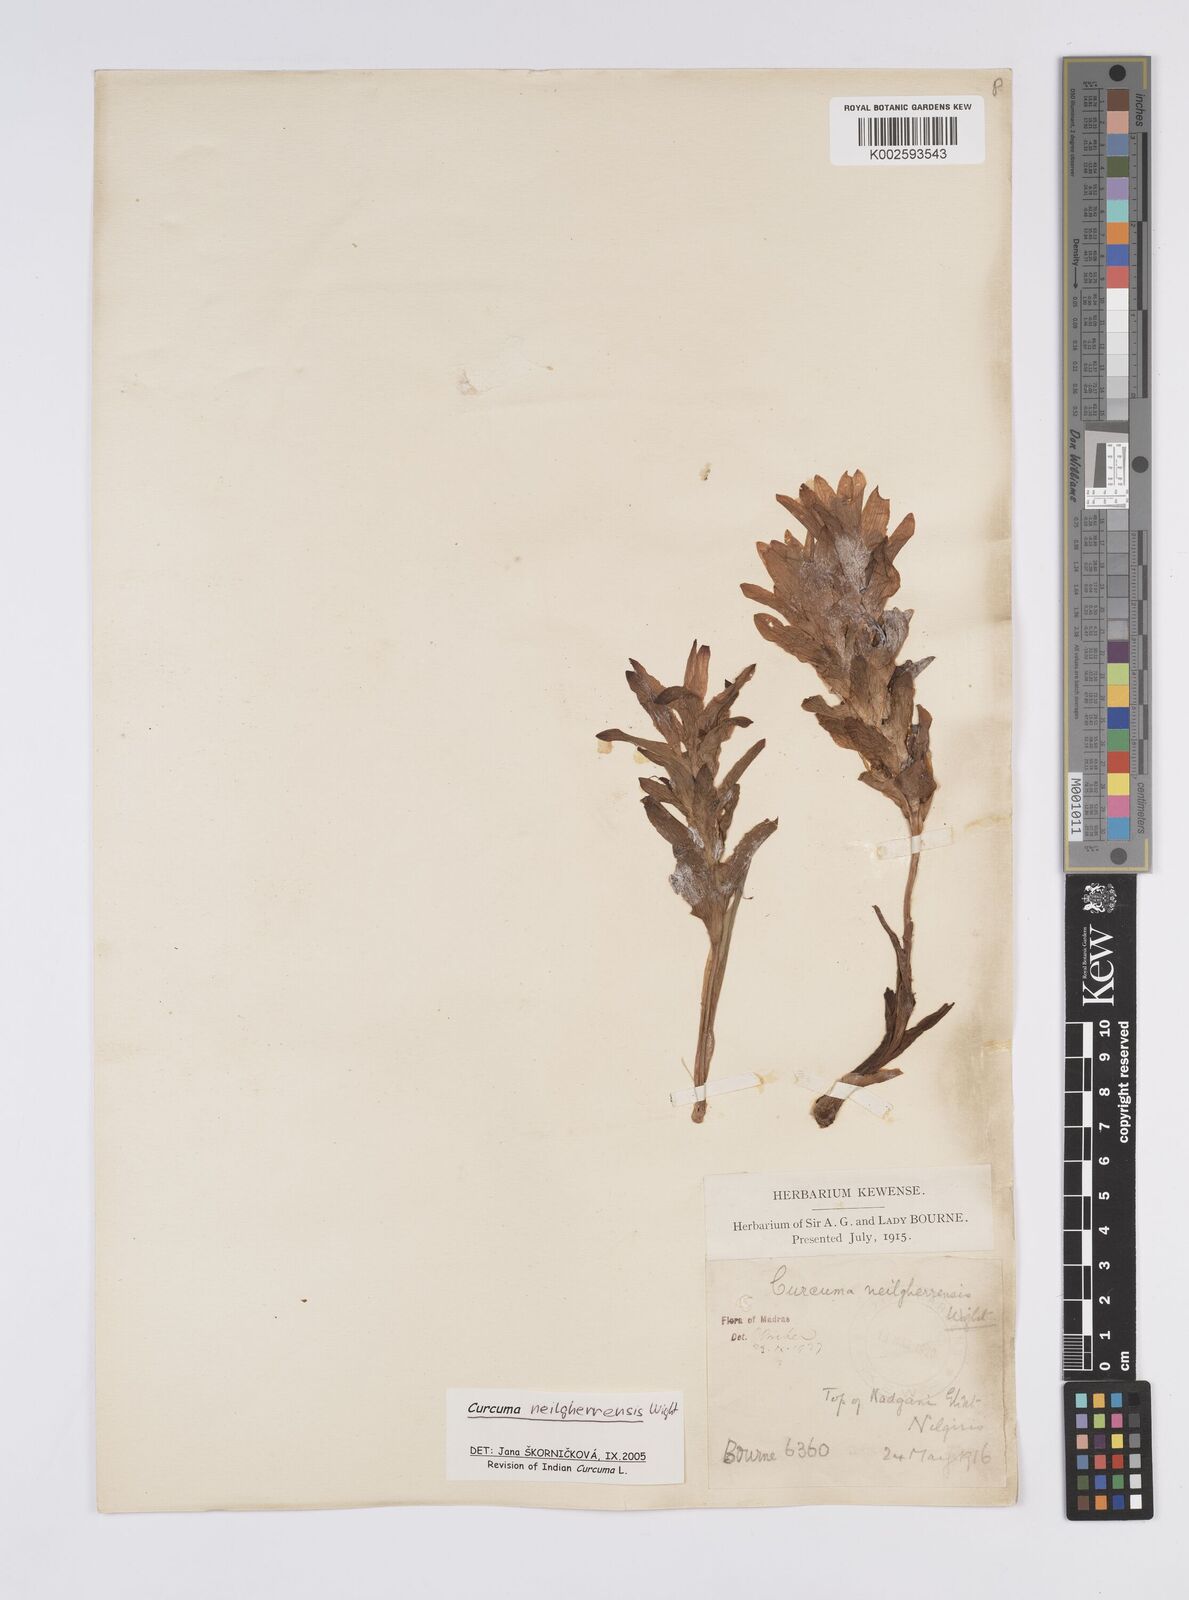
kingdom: Plantae
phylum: Tracheophyta
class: Liliopsida
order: Zingiberales
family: Zingiberaceae
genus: Curcuma
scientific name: Curcuma neilgherrensis
